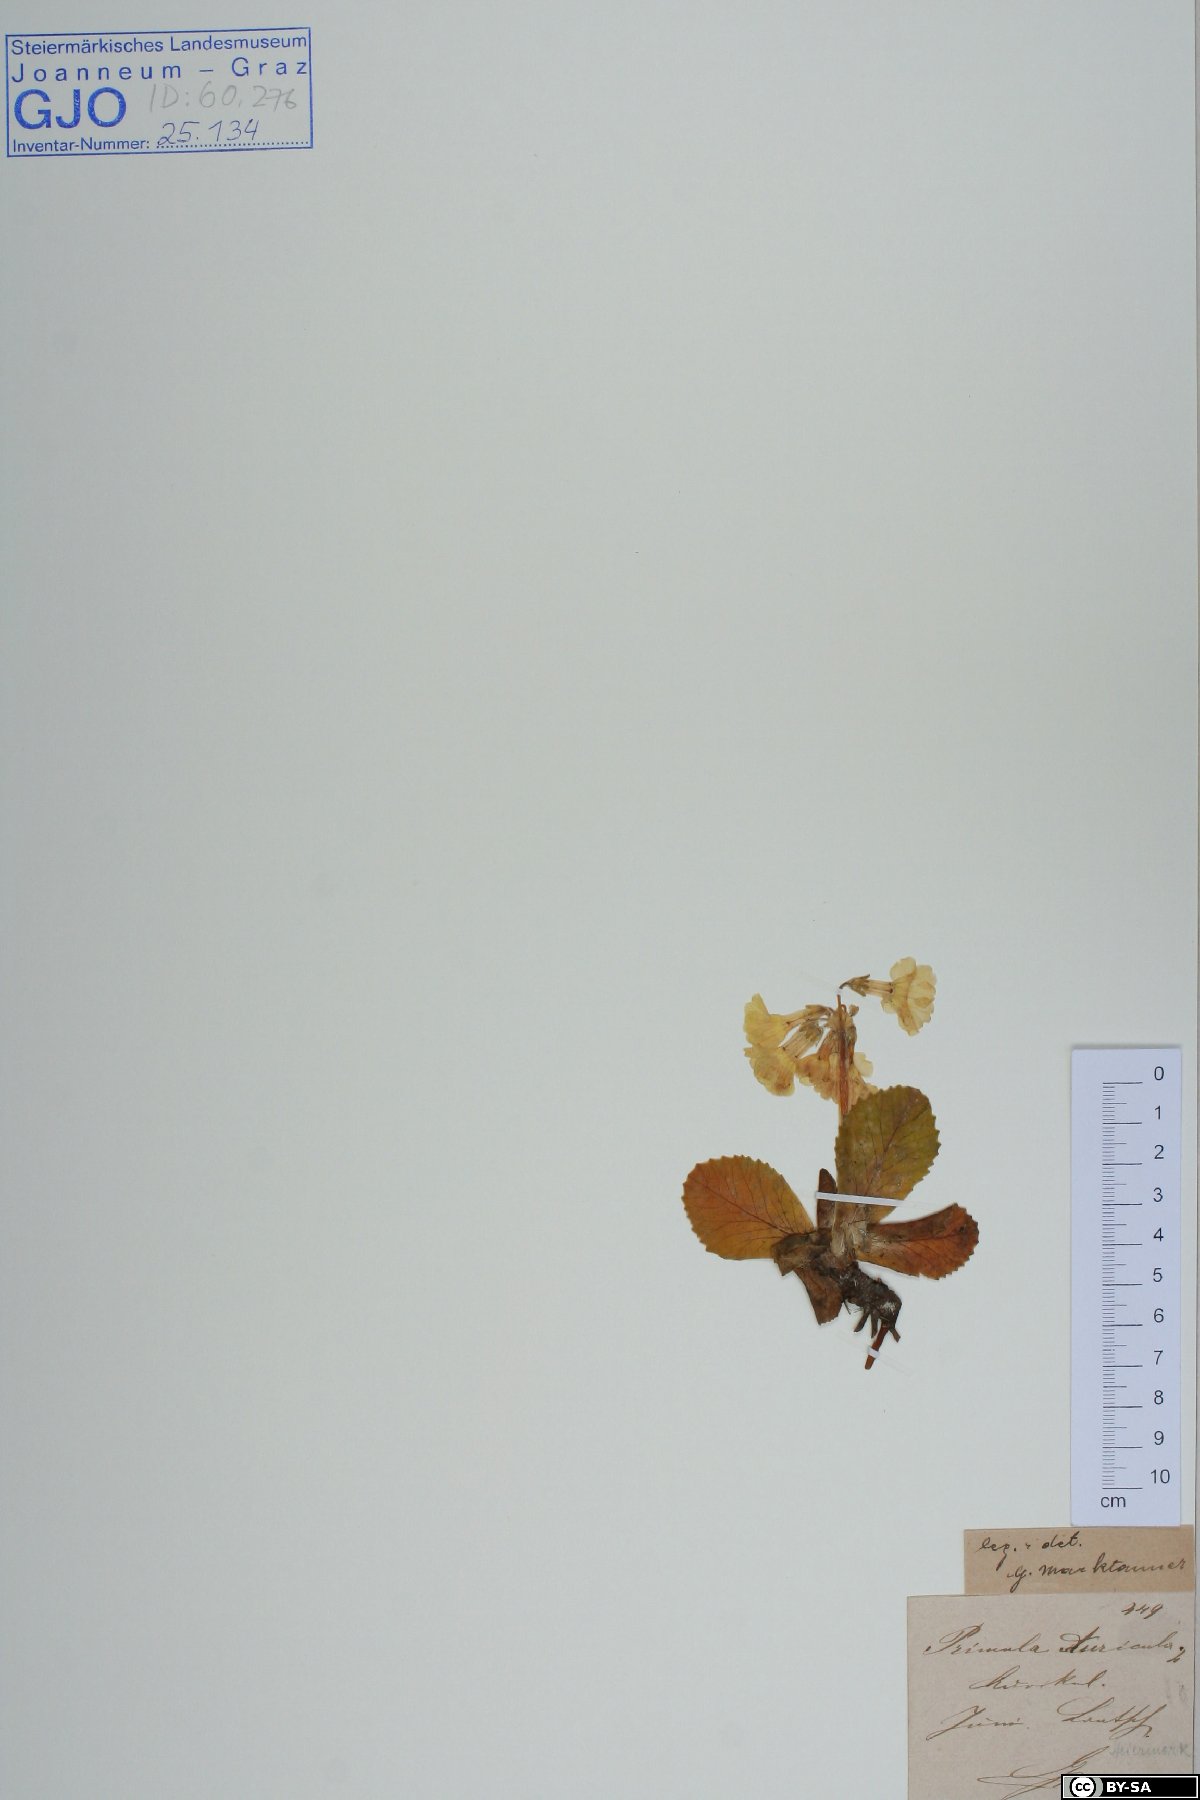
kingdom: Plantae
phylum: Tracheophyta
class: Magnoliopsida
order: Ericales
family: Primulaceae
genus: Primula
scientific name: Primula auricula
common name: Auricula
